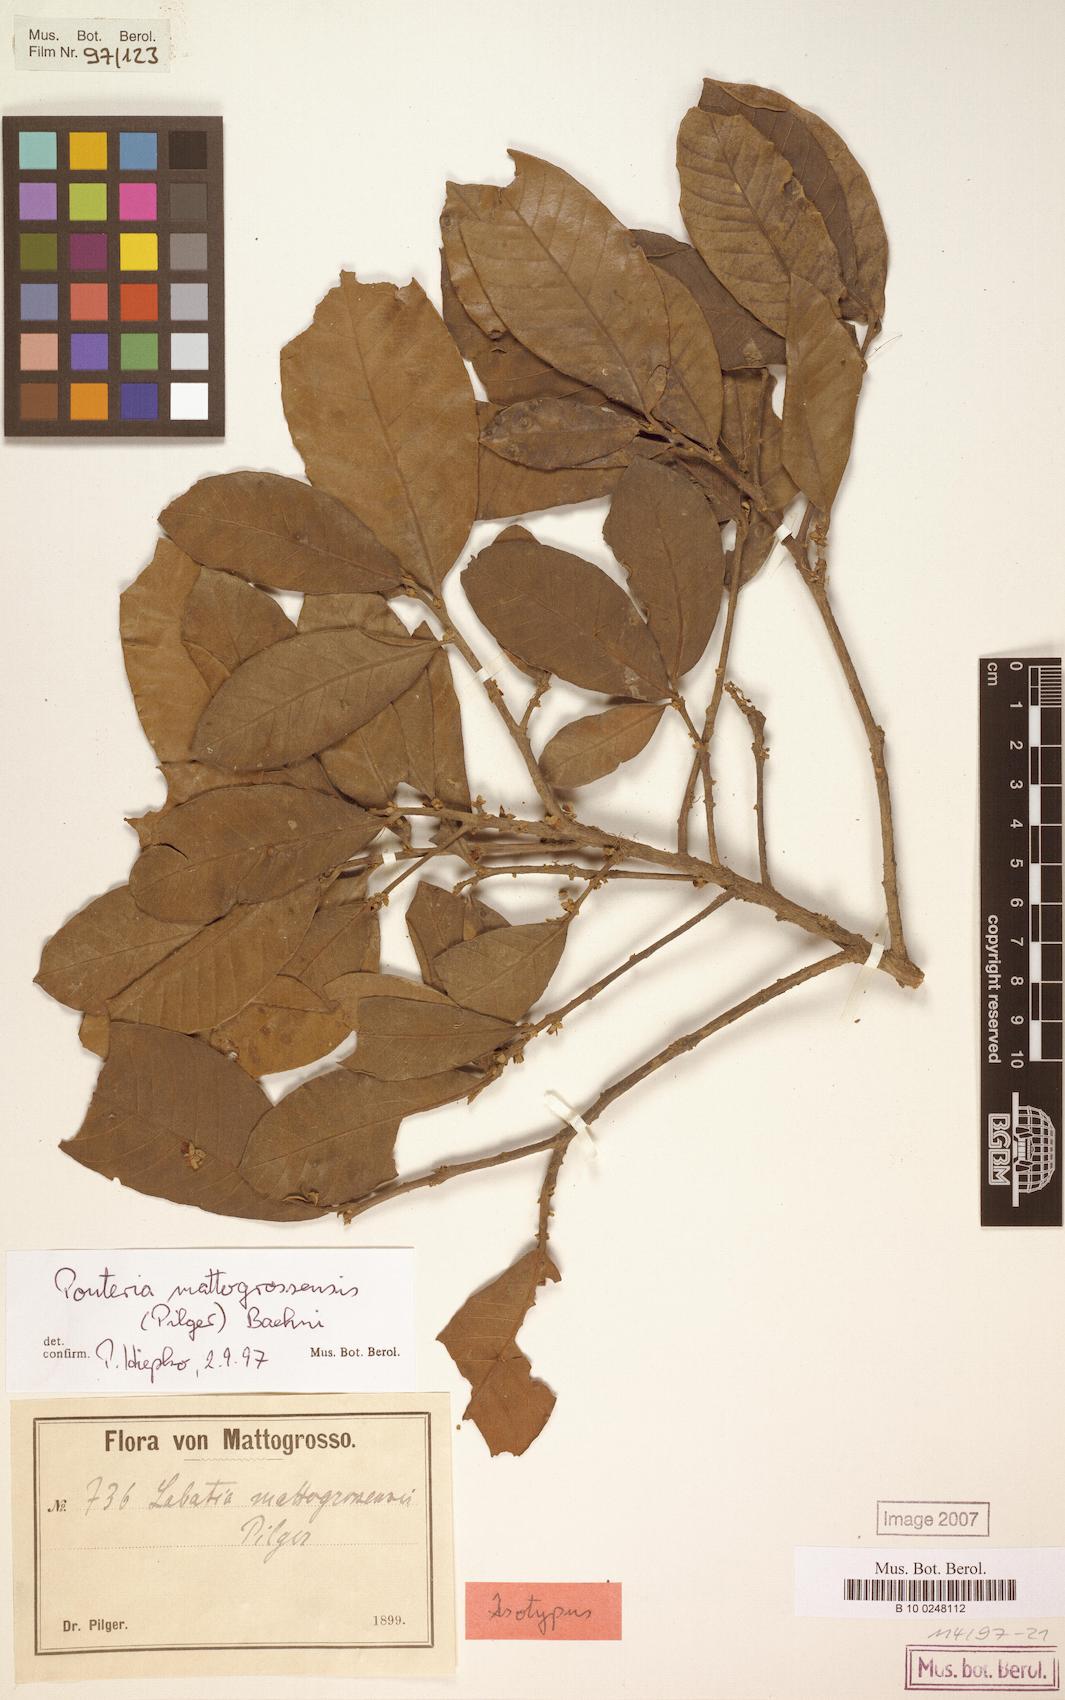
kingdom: Plantae
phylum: Tracheophyta
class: Magnoliopsida
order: Ericales
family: Sapotaceae
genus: Pouteria
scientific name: Pouteria mattogrossensis
